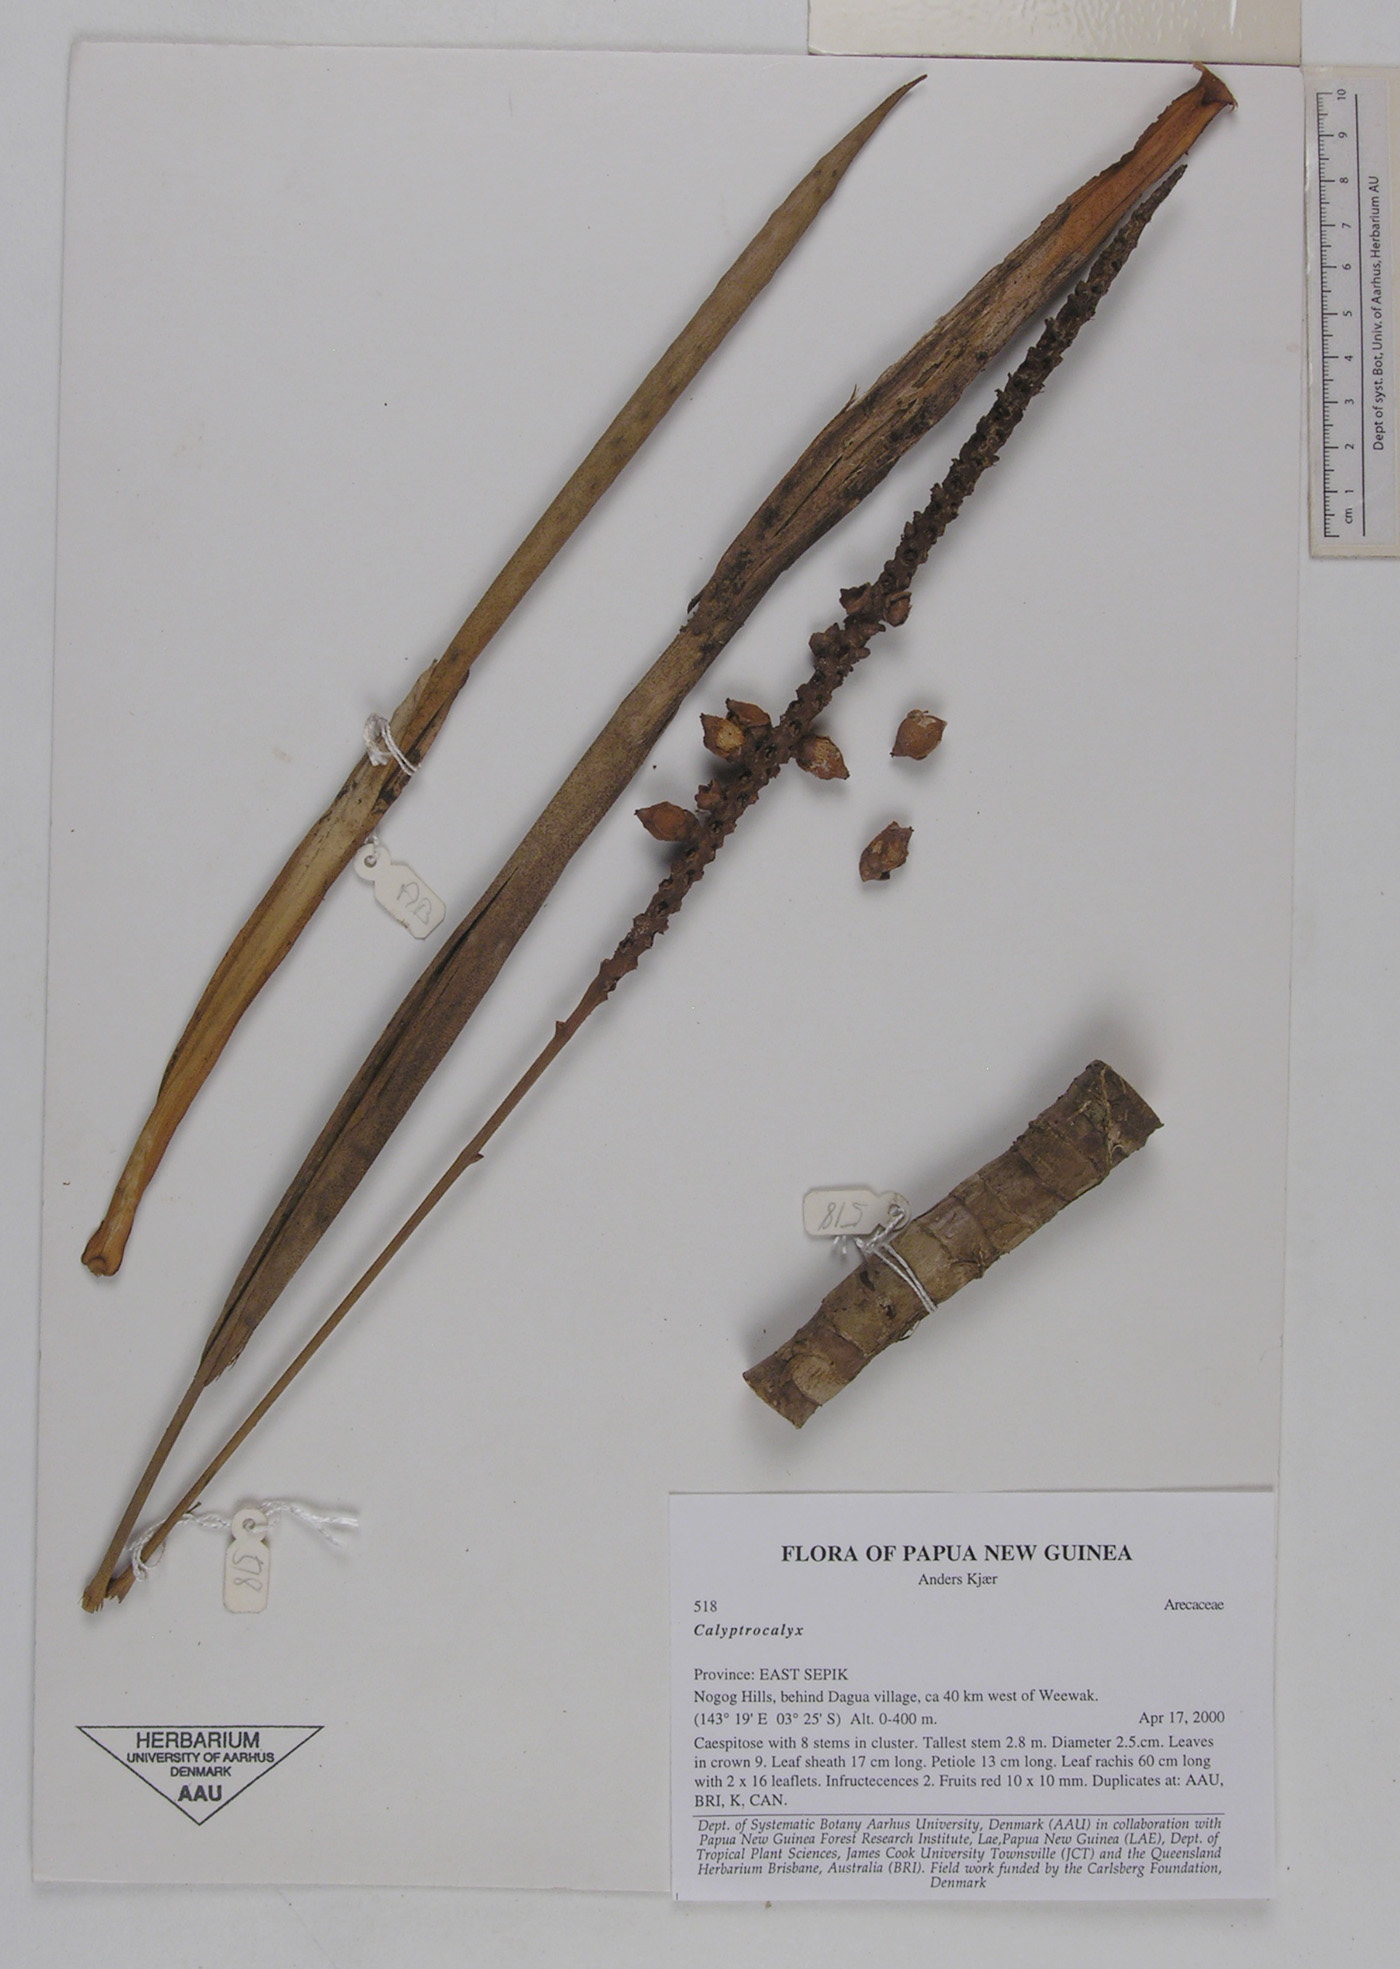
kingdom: Plantae
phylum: Tracheophyta
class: Liliopsida
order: Arecales
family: Arecaceae
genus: Calyptrocalyx
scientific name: Calyptrocalyx
